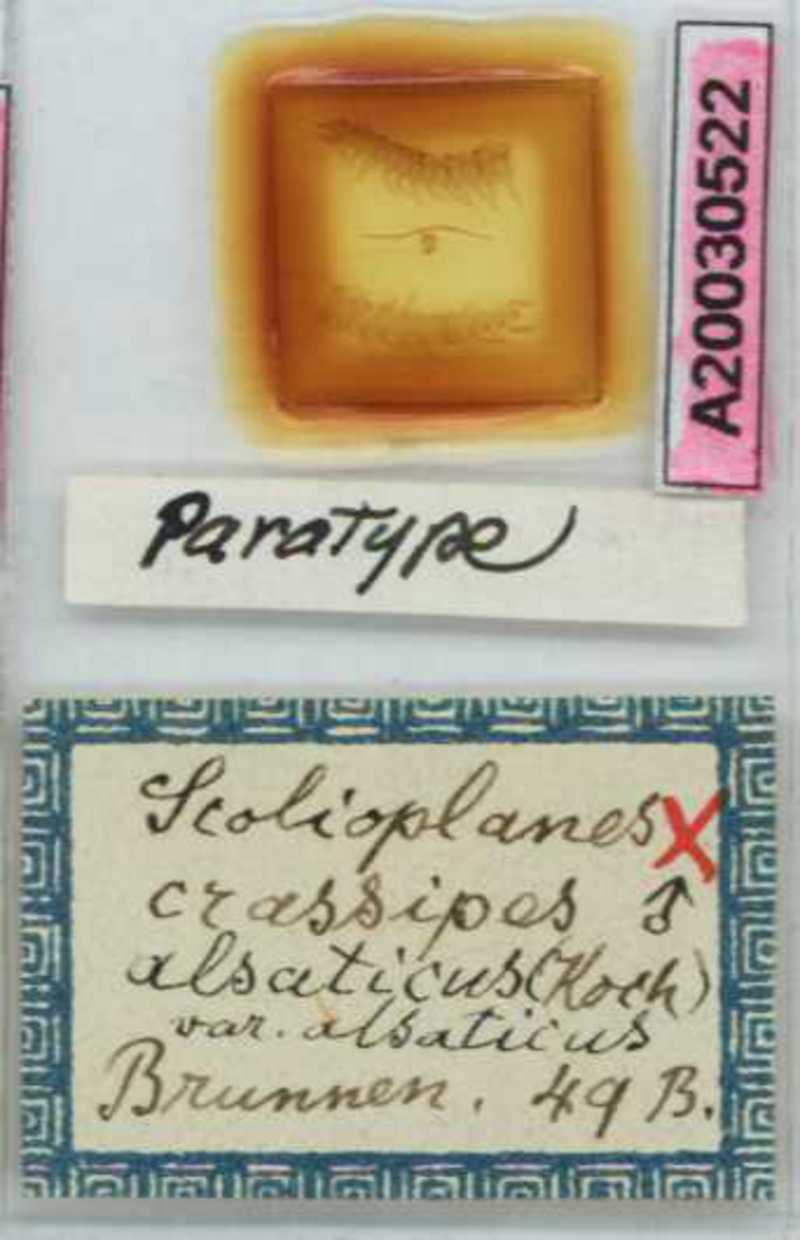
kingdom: Animalia
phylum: Arthropoda
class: Chilopoda
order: Geophilomorpha
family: Linotaeniidae
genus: Strigamia
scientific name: Strigamia crassipes
